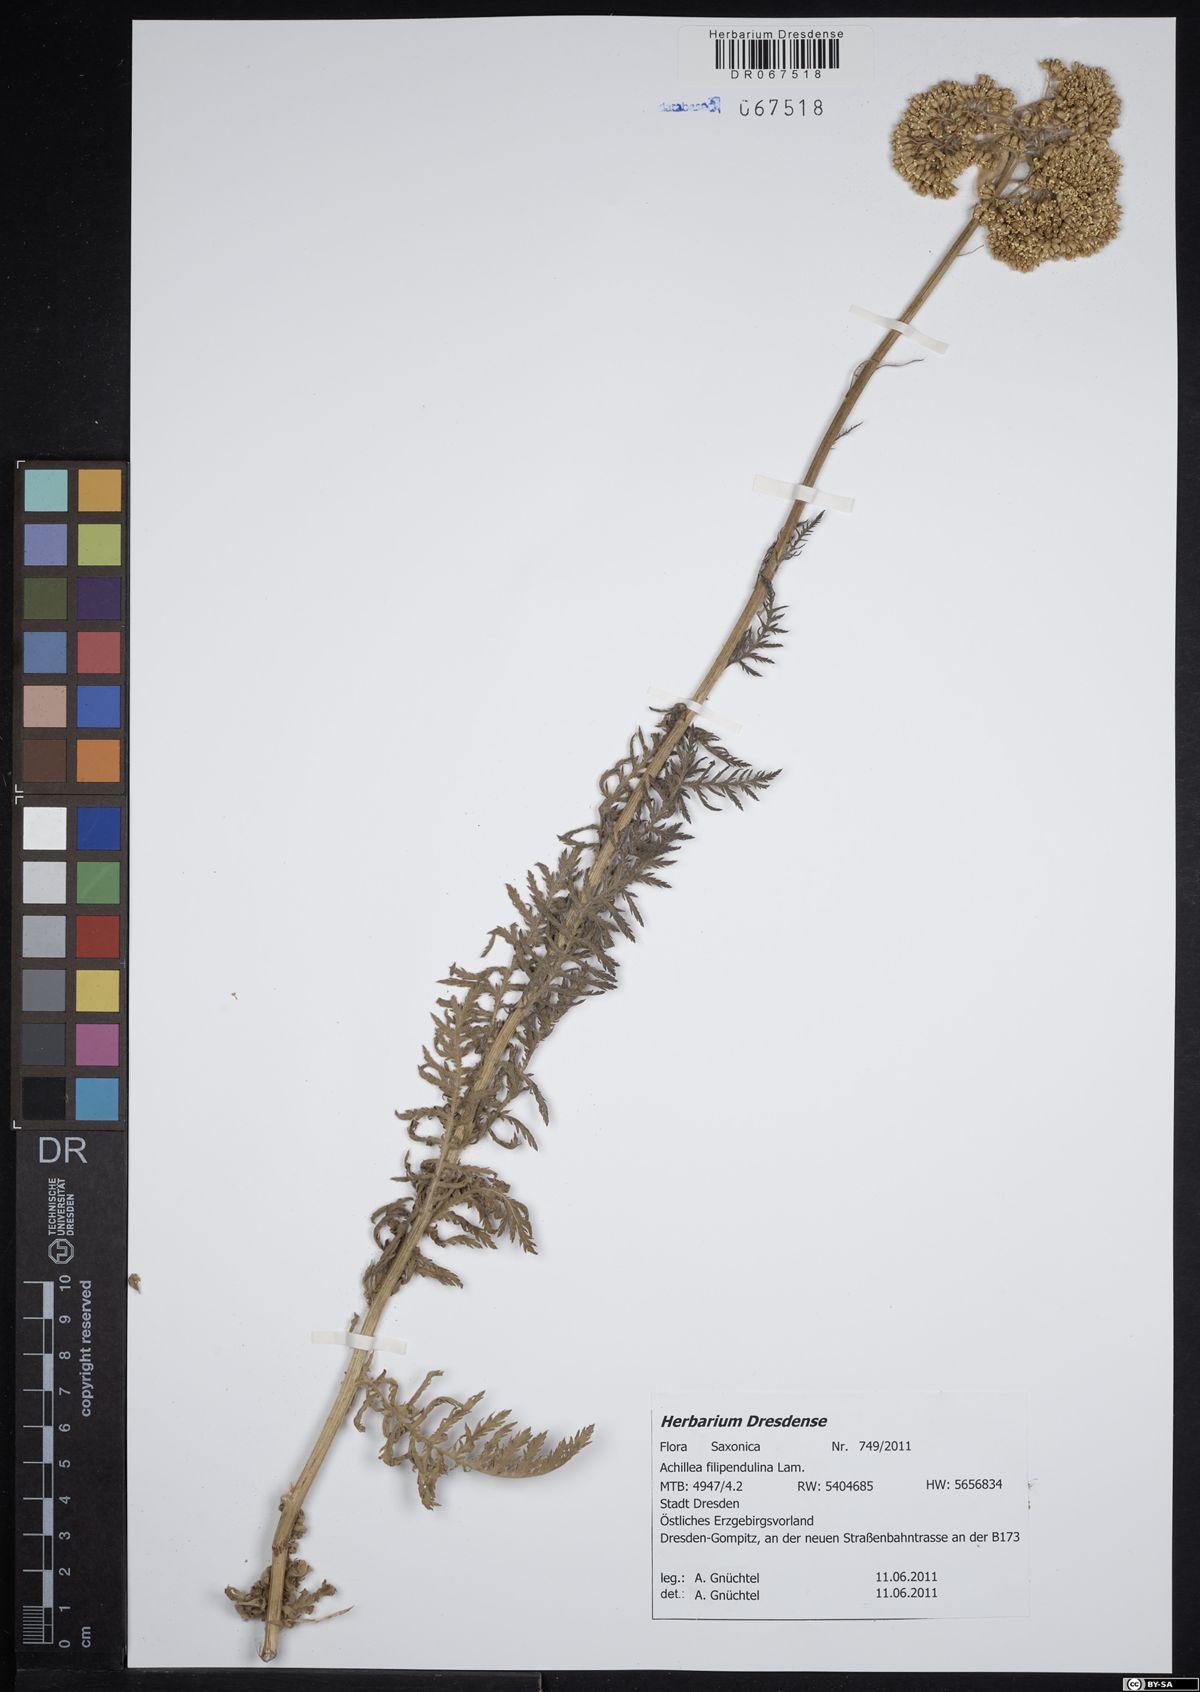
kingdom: Plantae
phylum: Tracheophyta
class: Magnoliopsida
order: Asterales
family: Asteraceae
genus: Achillea
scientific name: Achillea filipendulina
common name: Fernleaf yarrow
